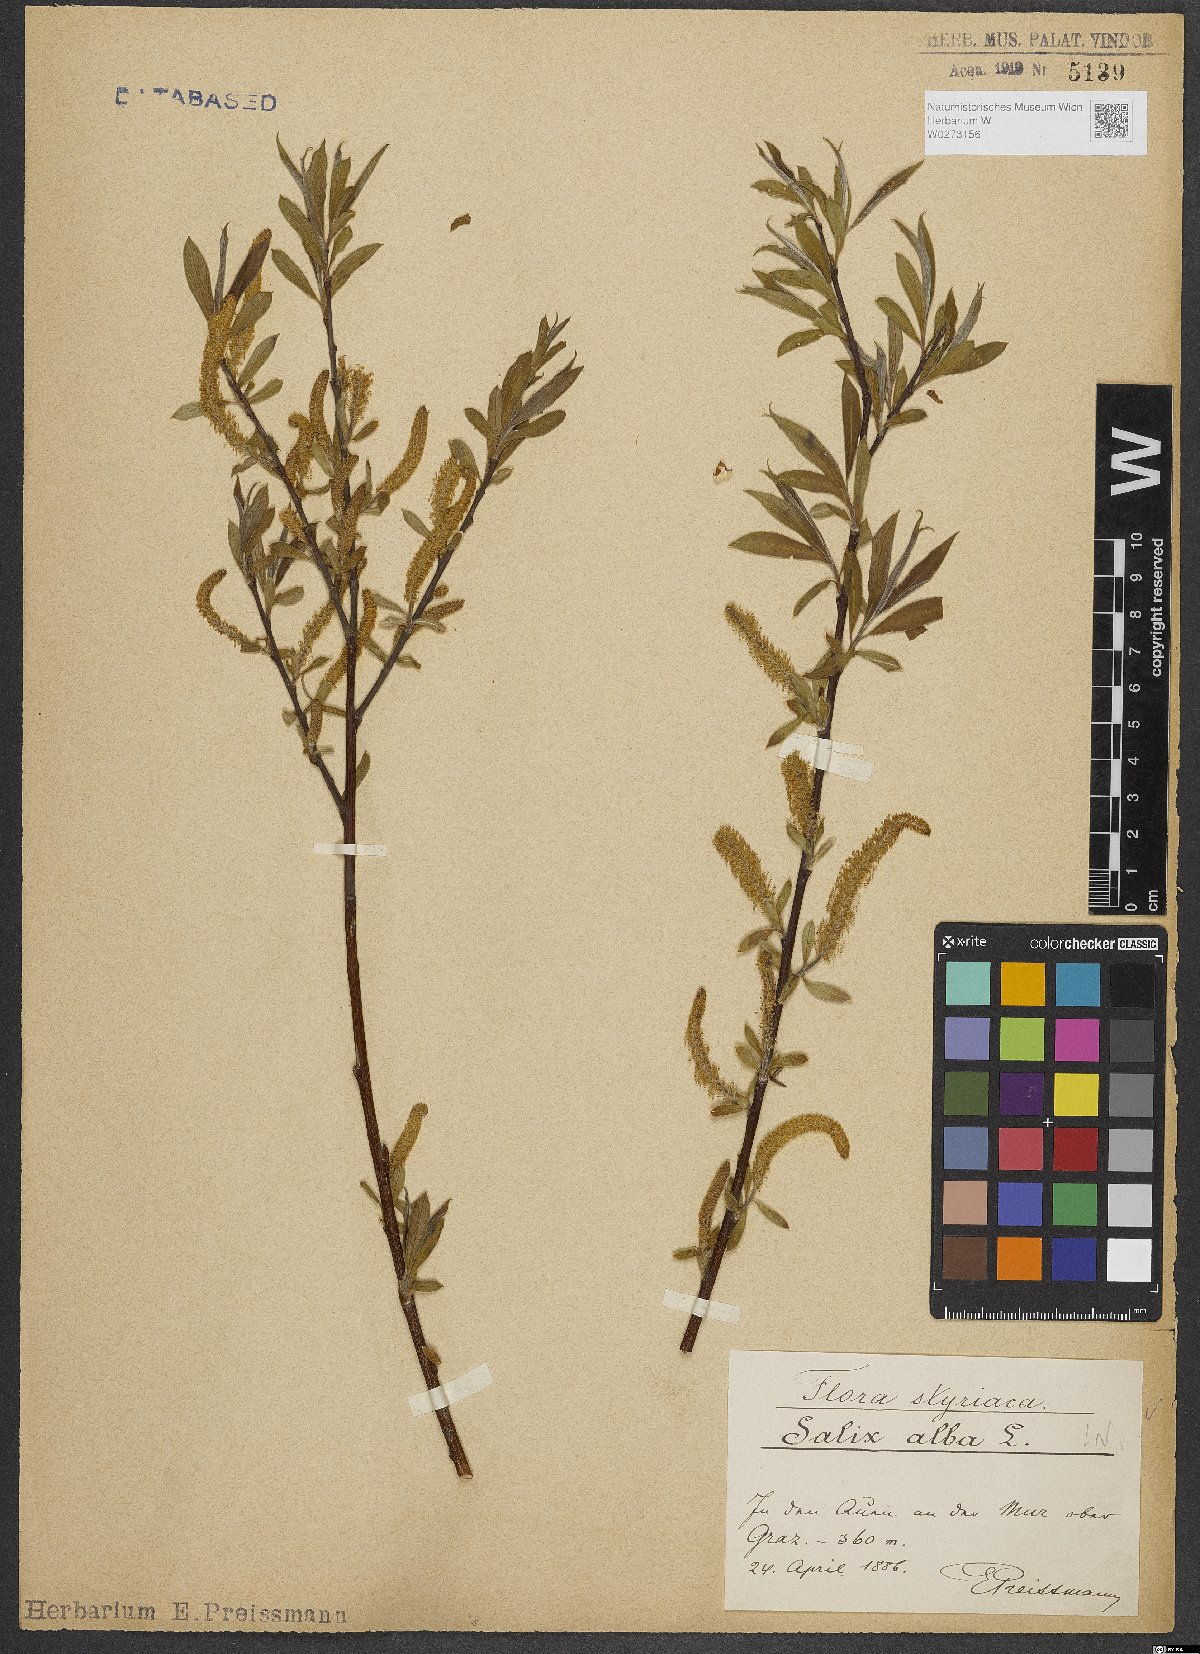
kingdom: Plantae
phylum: Tracheophyta
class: Magnoliopsida
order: Malpighiales
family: Salicaceae
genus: Salix
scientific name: Salix alba
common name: White willow
